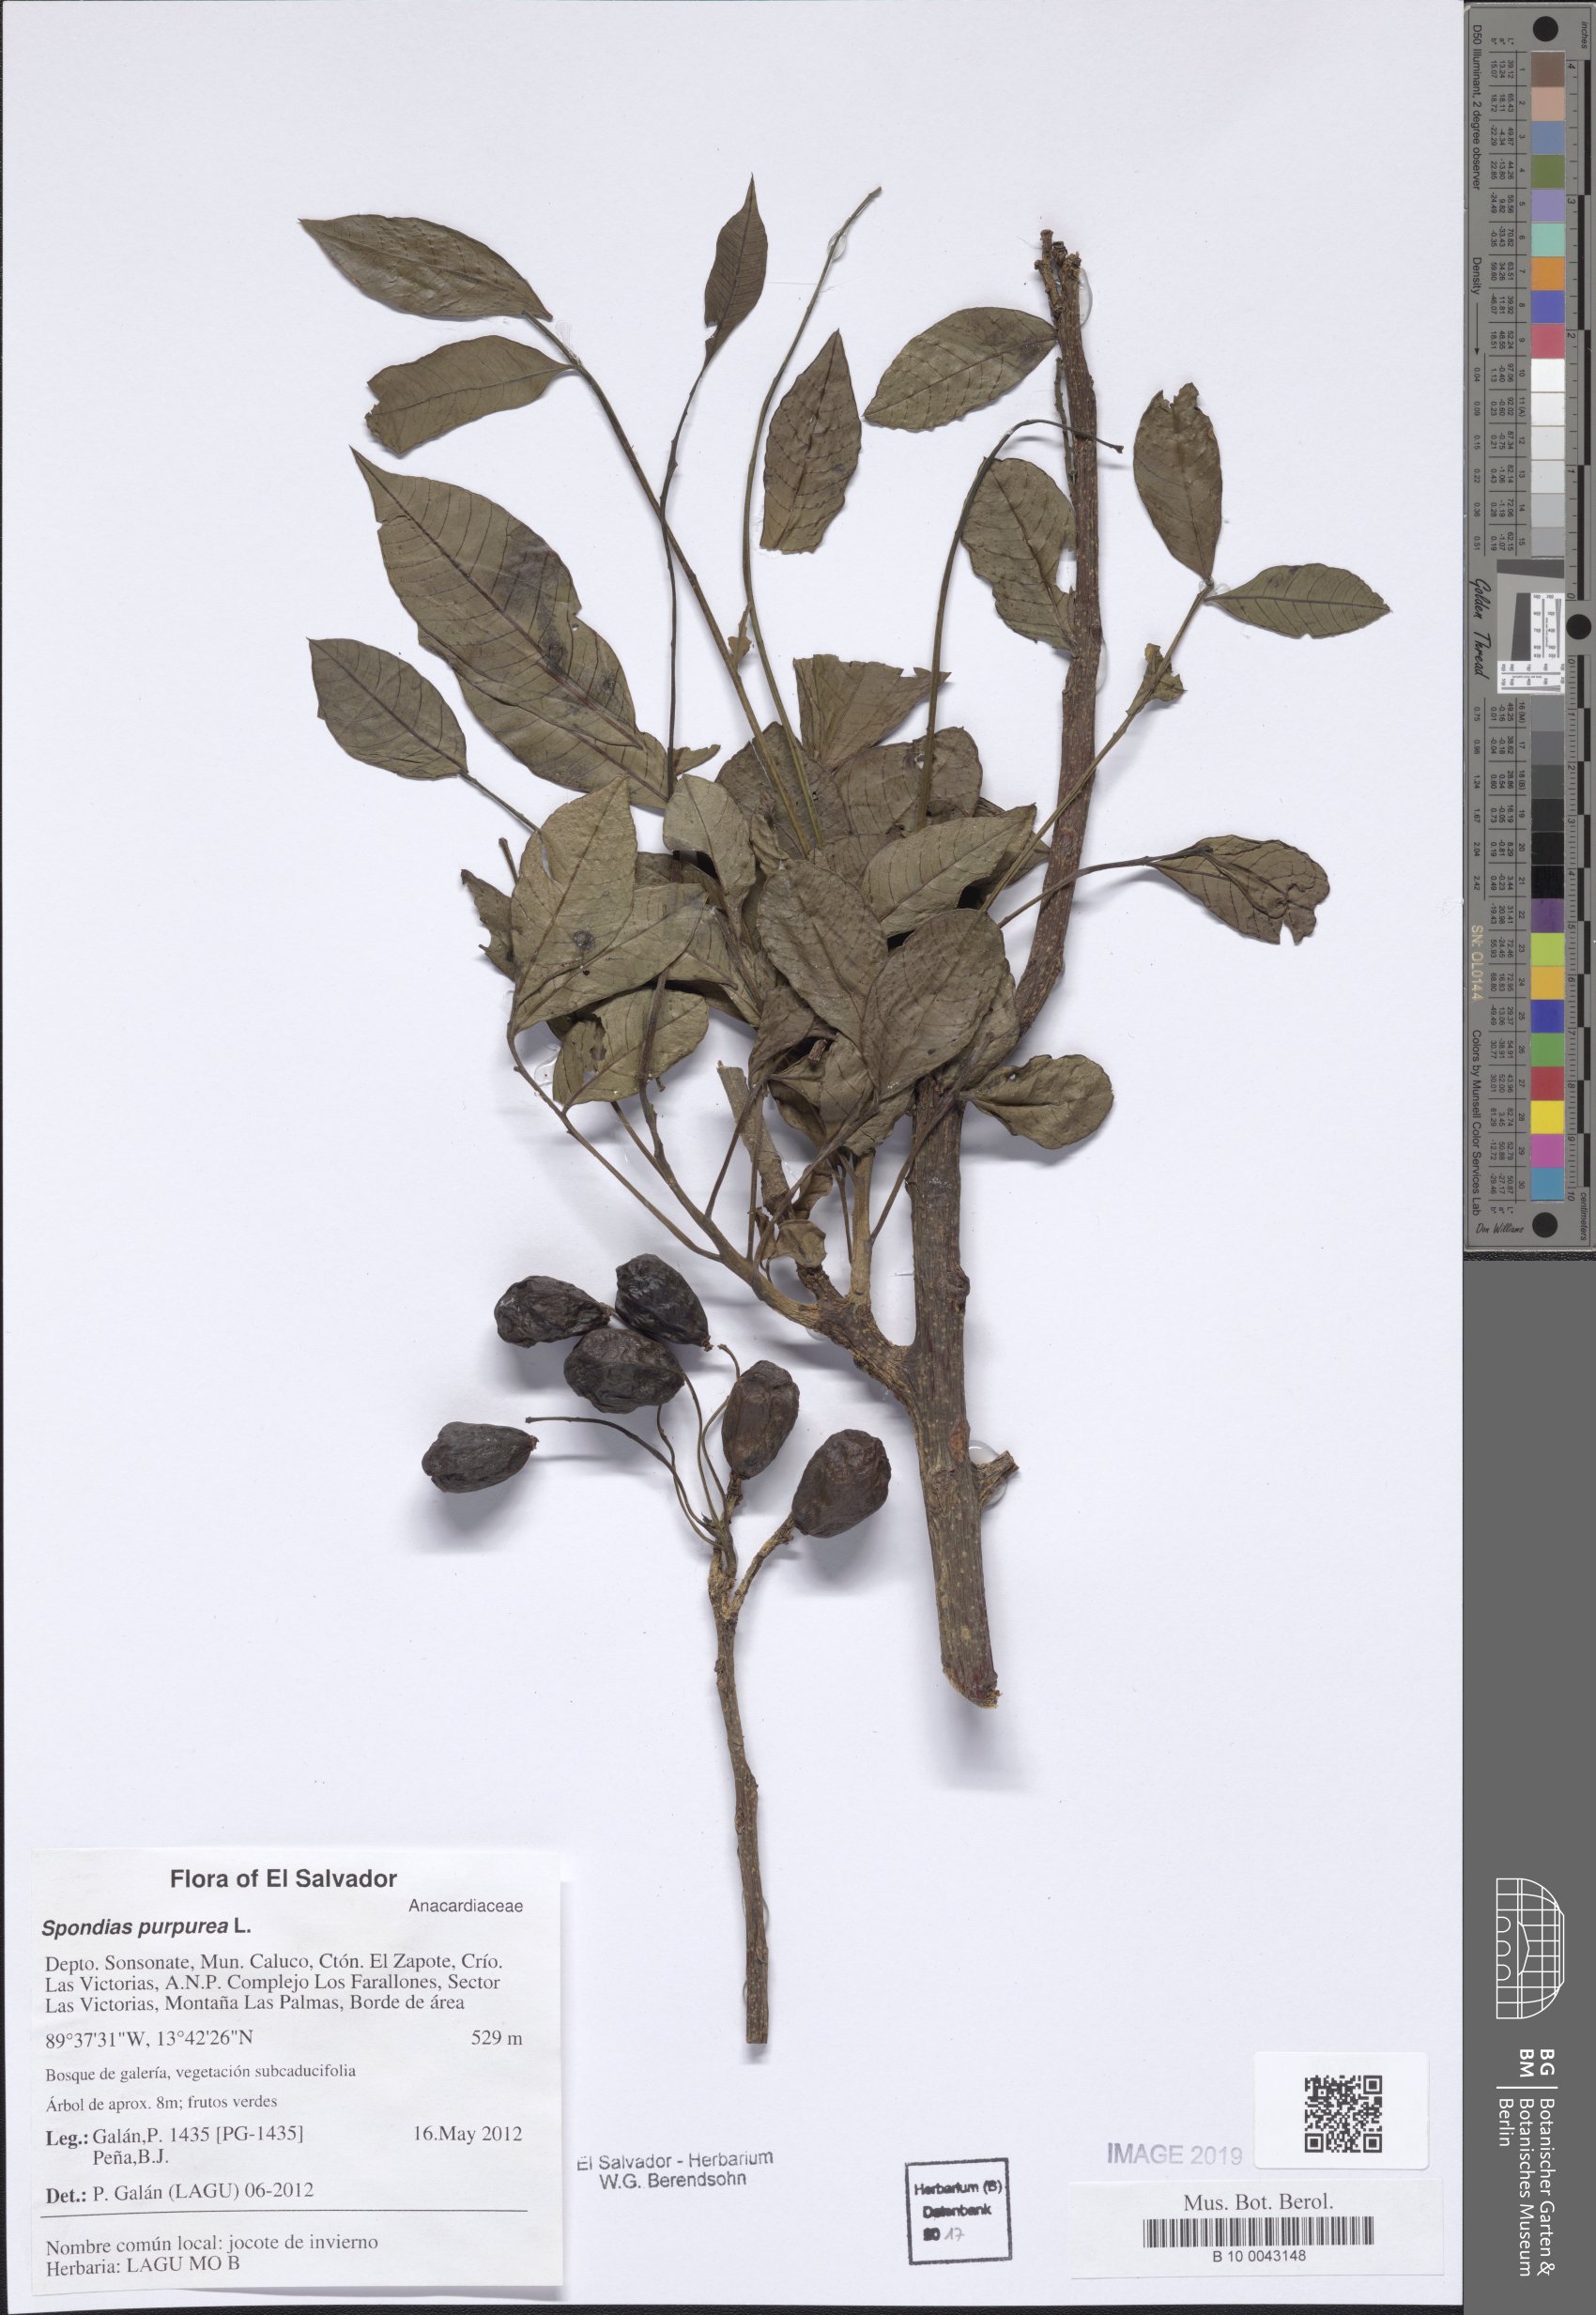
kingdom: Plantae
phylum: Tracheophyta
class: Magnoliopsida
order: Sapindales
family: Anacardiaceae
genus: Spondias
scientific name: Spondias purpurea
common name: Purple mombin
